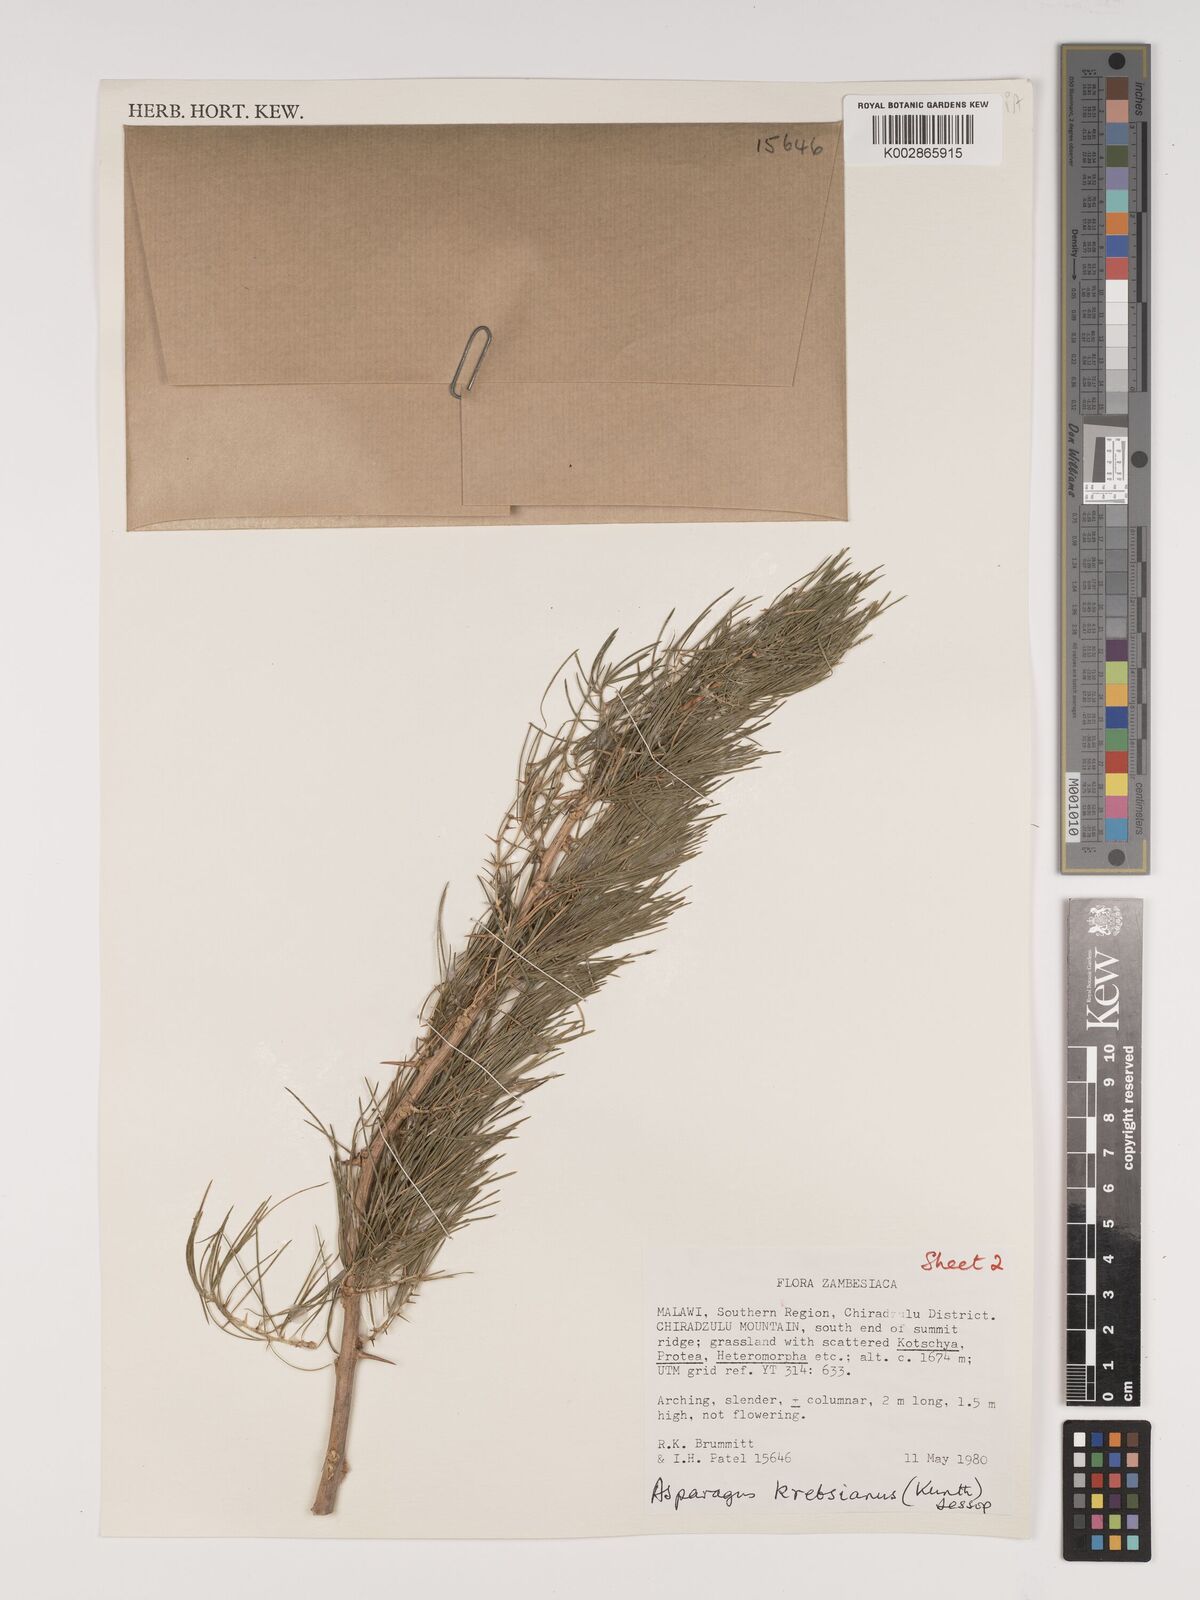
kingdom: Plantae
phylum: Tracheophyta
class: Liliopsida
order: Asparagales
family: Asparagaceae
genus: Asparagus
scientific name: Asparagus krebsianus
